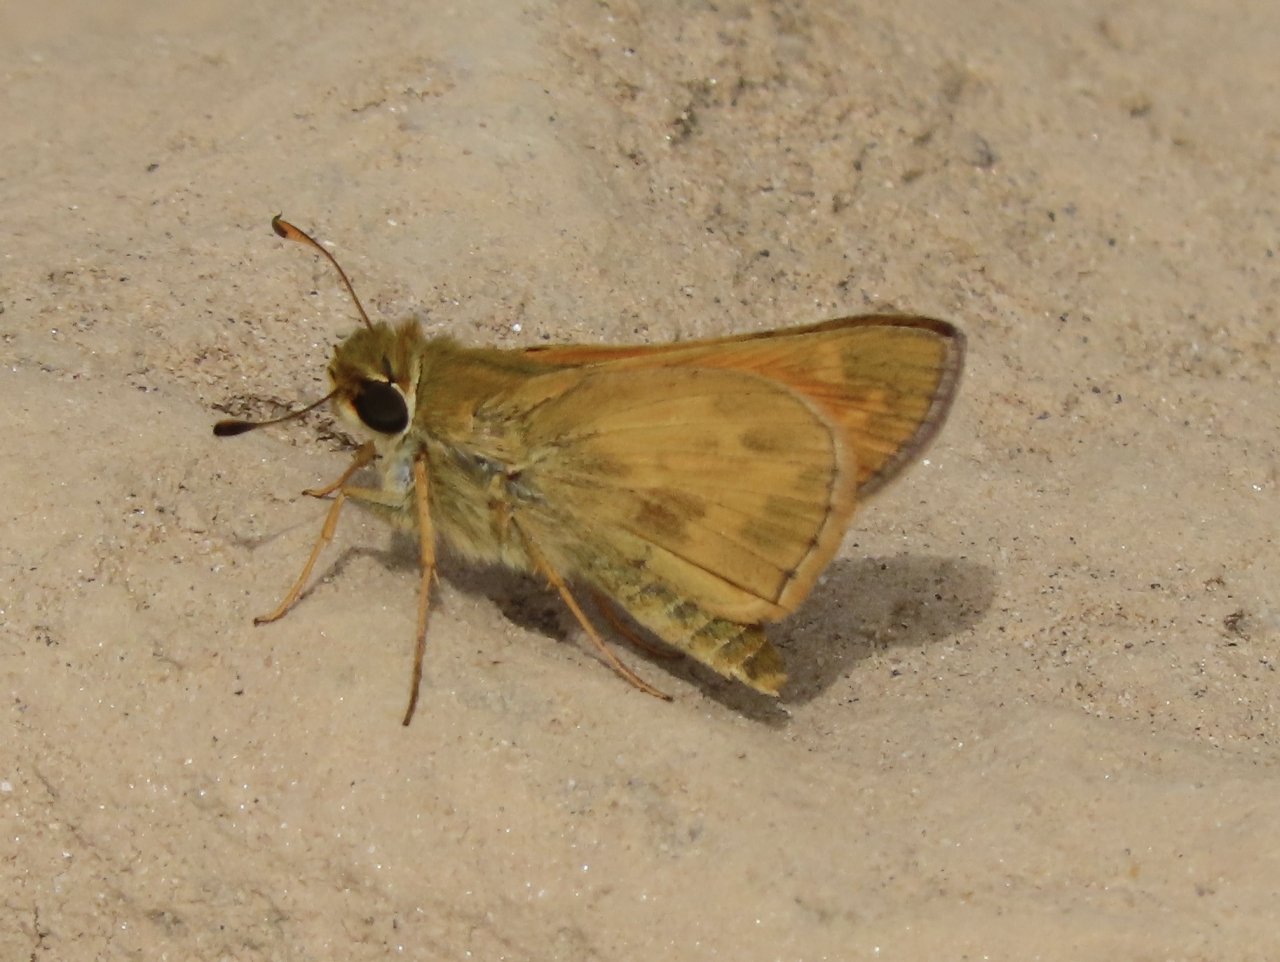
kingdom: Animalia
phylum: Arthropoda
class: Insecta
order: Lepidoptera
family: Hesperiidae
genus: Atalopedes
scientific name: Atalopedes campestris
